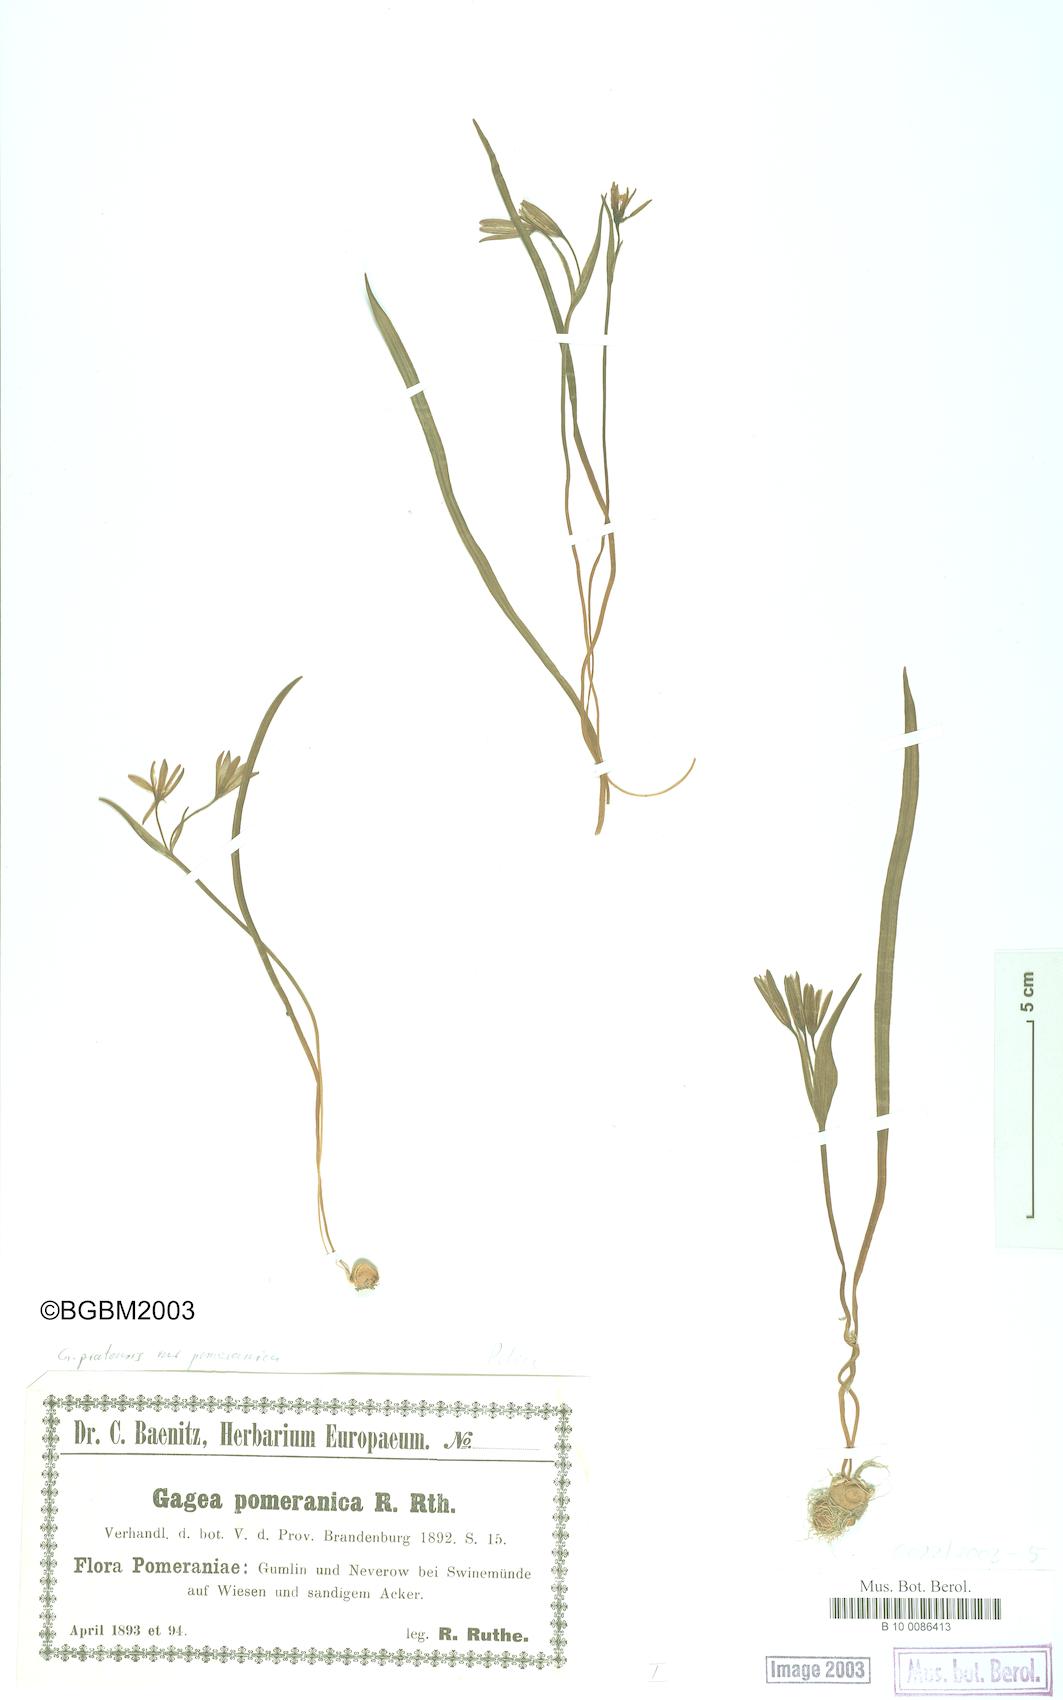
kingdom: Plantae
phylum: Tracheophyta
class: Liliopsida
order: Liliales
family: Liliaceae
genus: Gagea
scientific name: Gagea pomeranica
